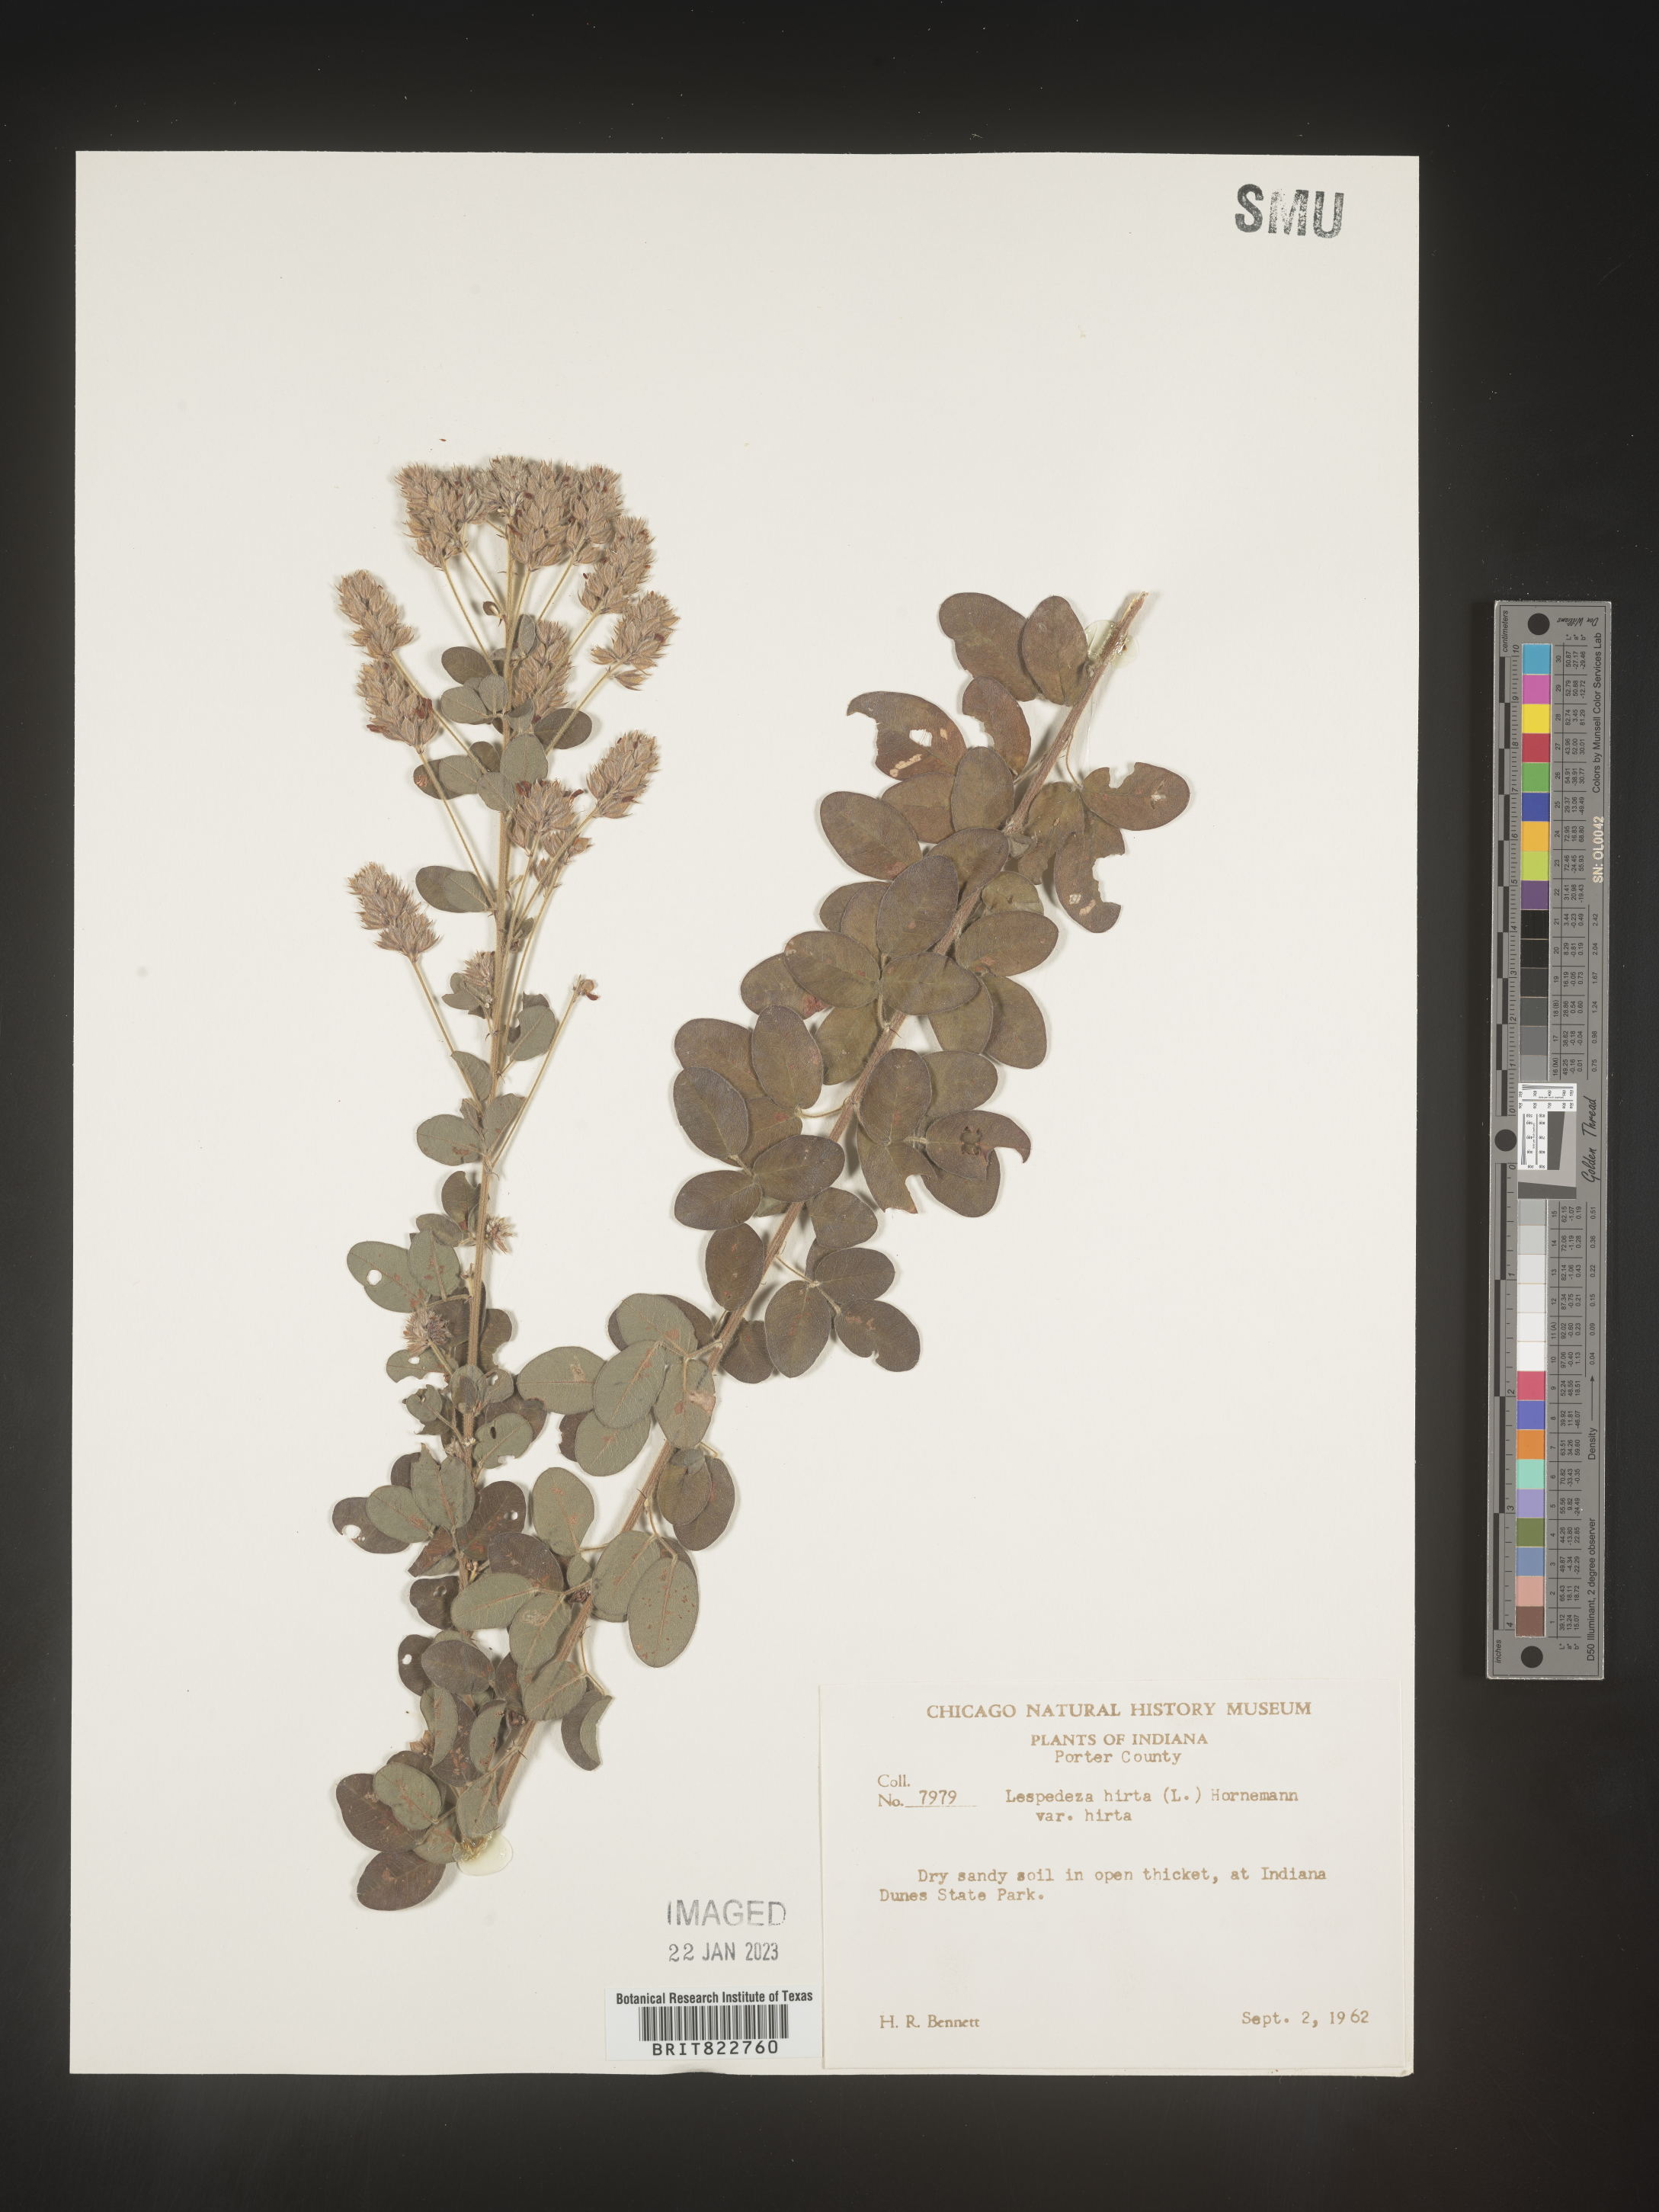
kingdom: Plantae
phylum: Tracheophyta
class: Magnoliopsida
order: Fabales
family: Fabaceae
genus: Lespedeza
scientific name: Lespedeza hirta
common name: Hairy lespedeza
